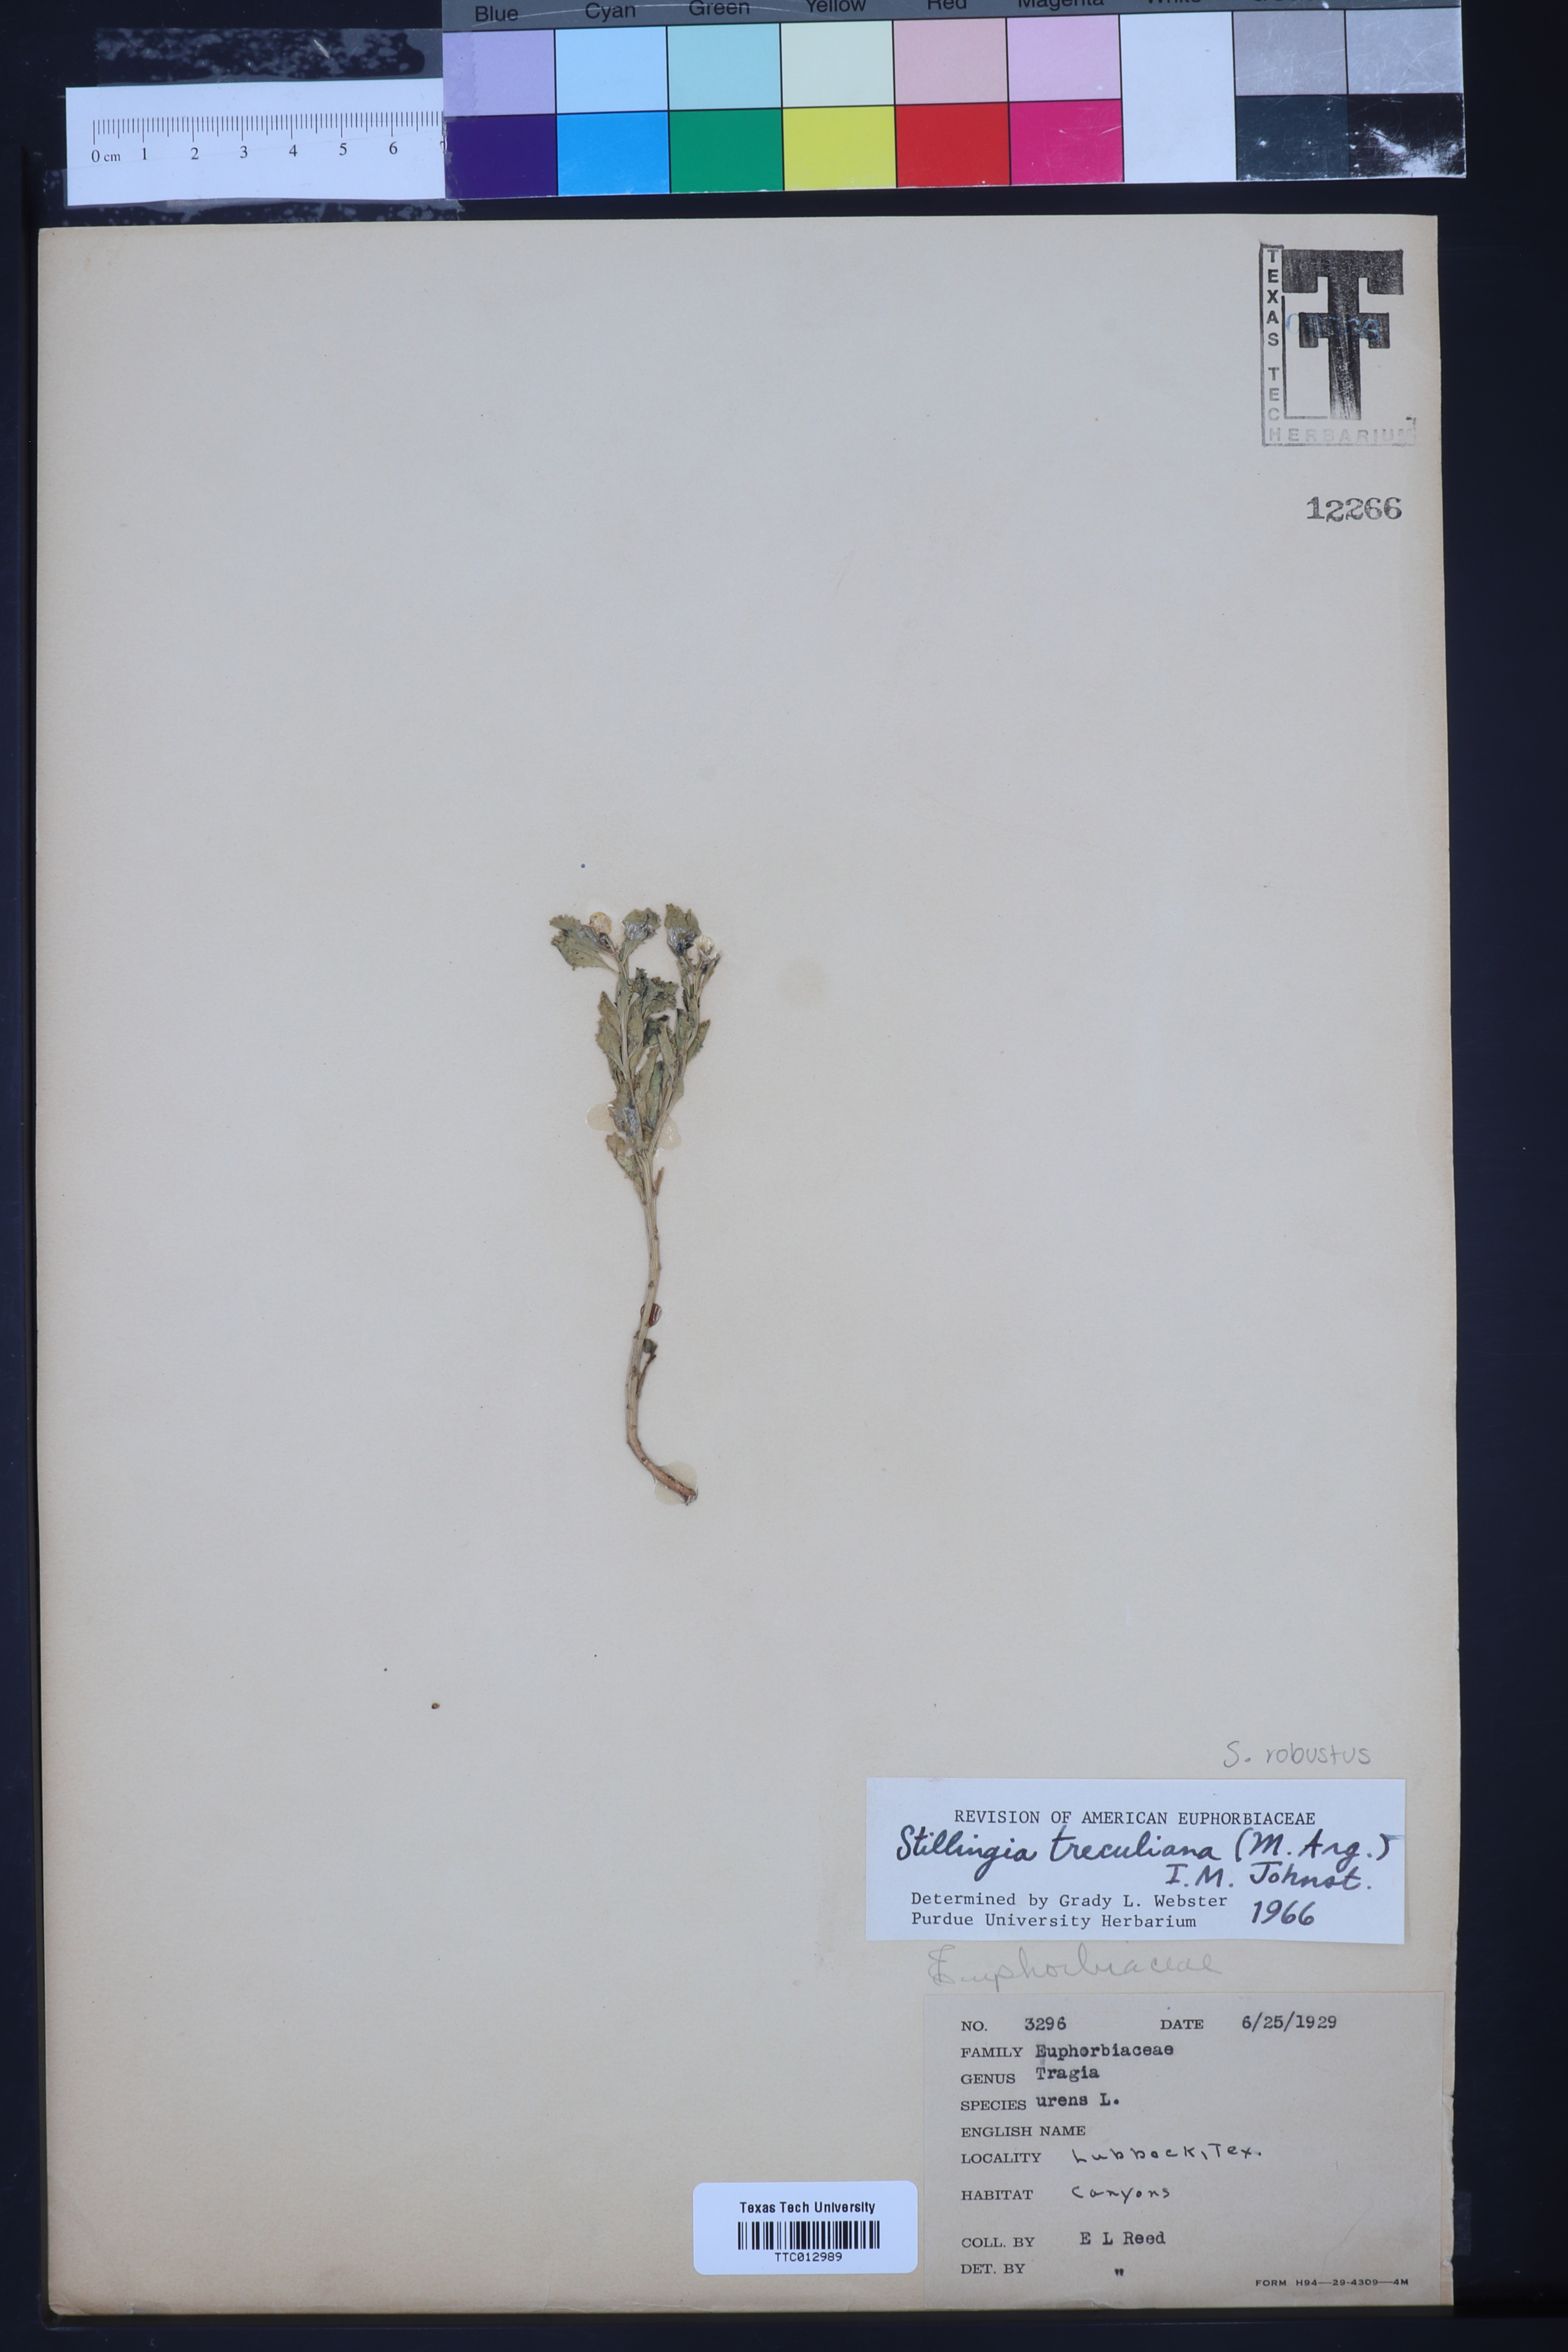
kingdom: Plantae
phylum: Tracheophyta
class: Magnoliopsida
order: Malpighiales
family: Euphorbiaceae
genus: Stillingia
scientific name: Stillingia treculiana
